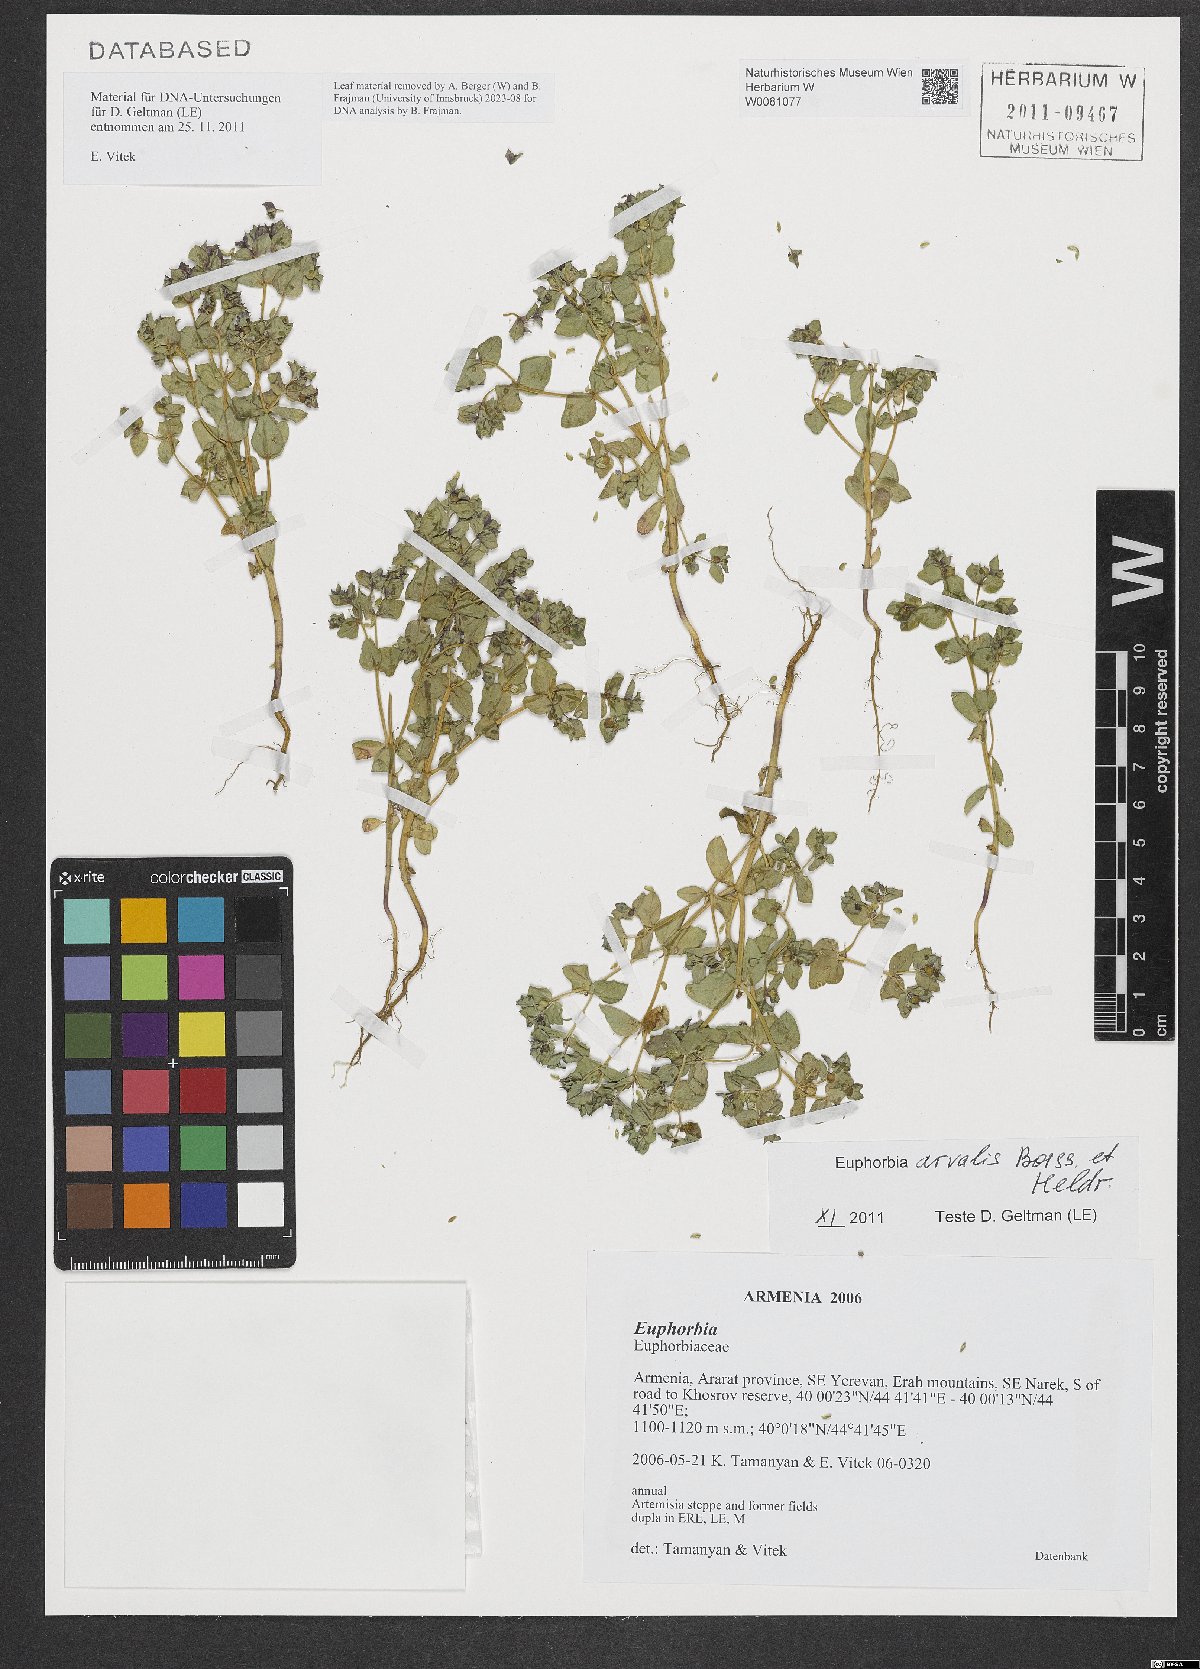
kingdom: Plantae
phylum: Tracheophyta
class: Magnoliopsida
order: Malpighiales
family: Euphorbiaceae
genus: Euphorbia
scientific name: Euphorbia arvalis
